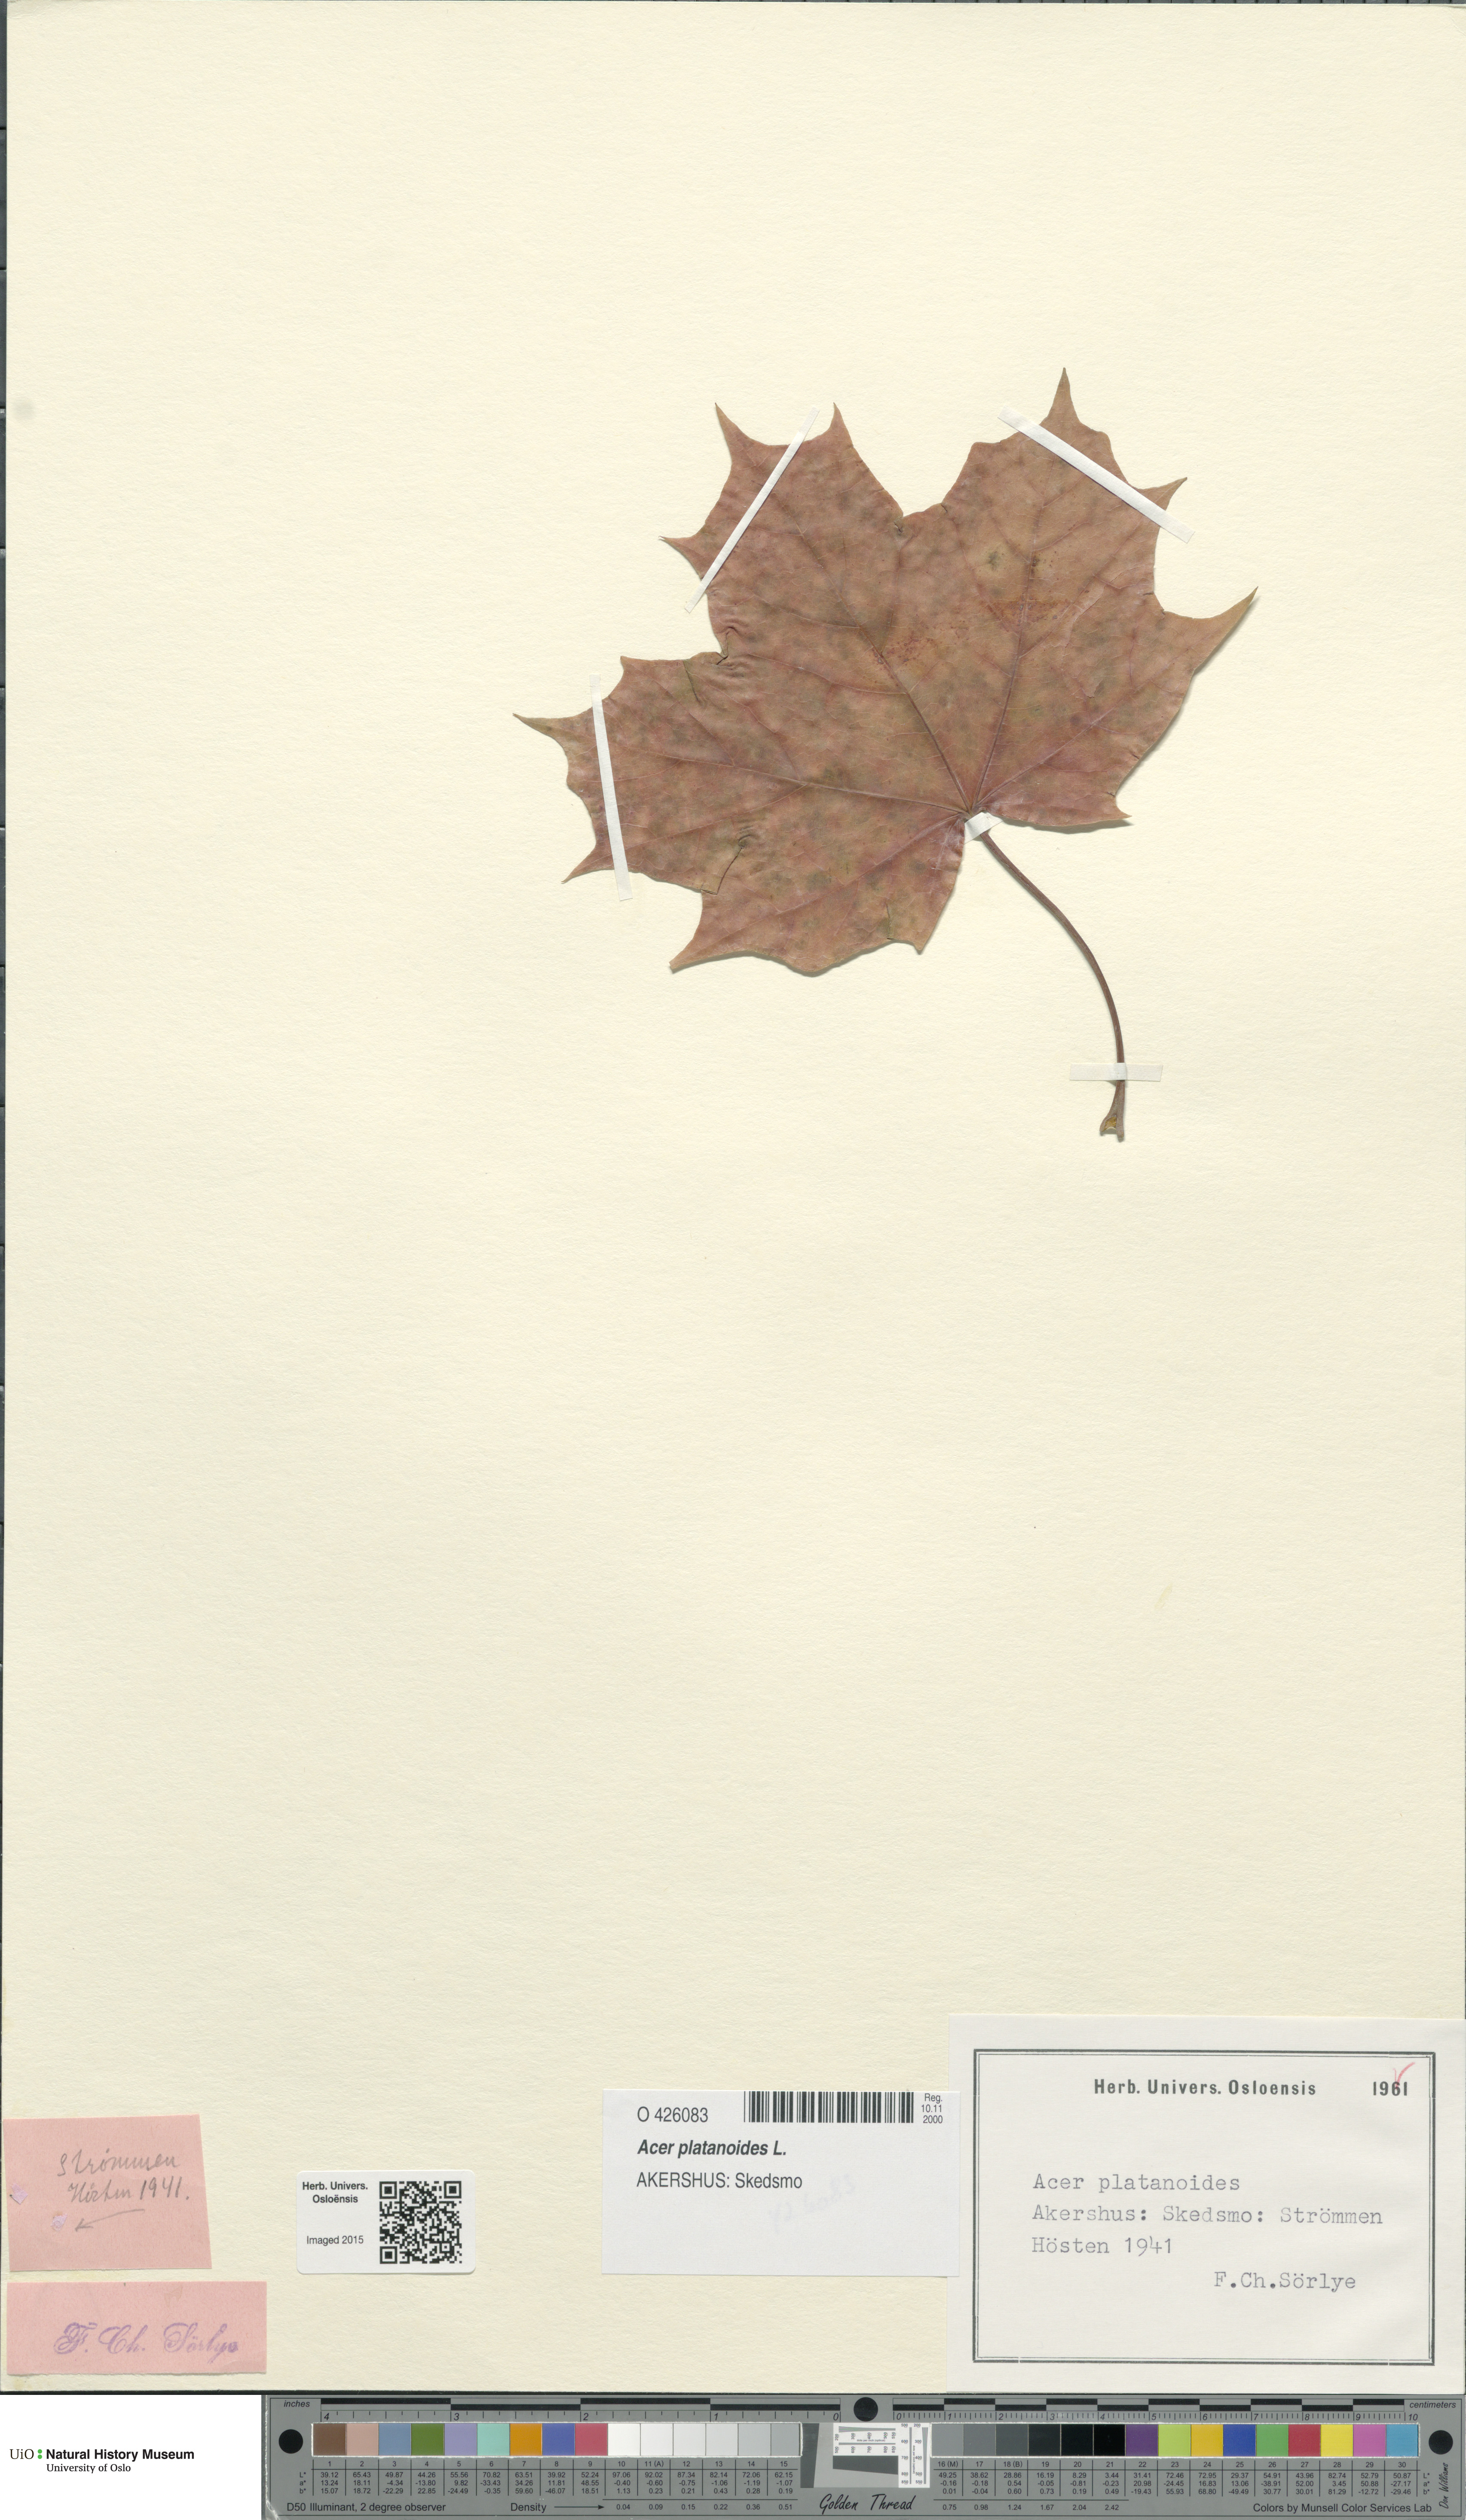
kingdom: Plantae
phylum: Tracheophyta
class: Magnoliopsida
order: Sapindales
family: Sapindaceae
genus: Acer
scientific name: Acer platanoides
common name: Norway maple
